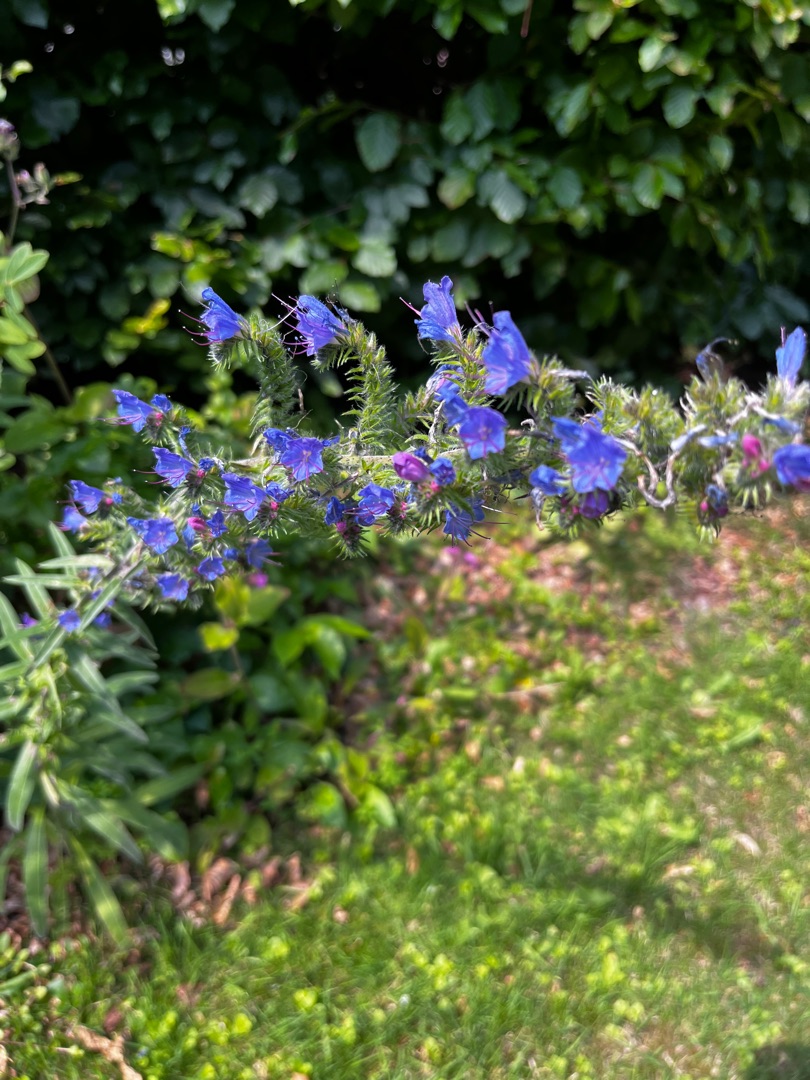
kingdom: Plantae
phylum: Tracheophyta
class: Magnoliopsida
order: Boraginales
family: Boraginaceae
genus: Echium
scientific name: Echium vulgare
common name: Slangehoved
